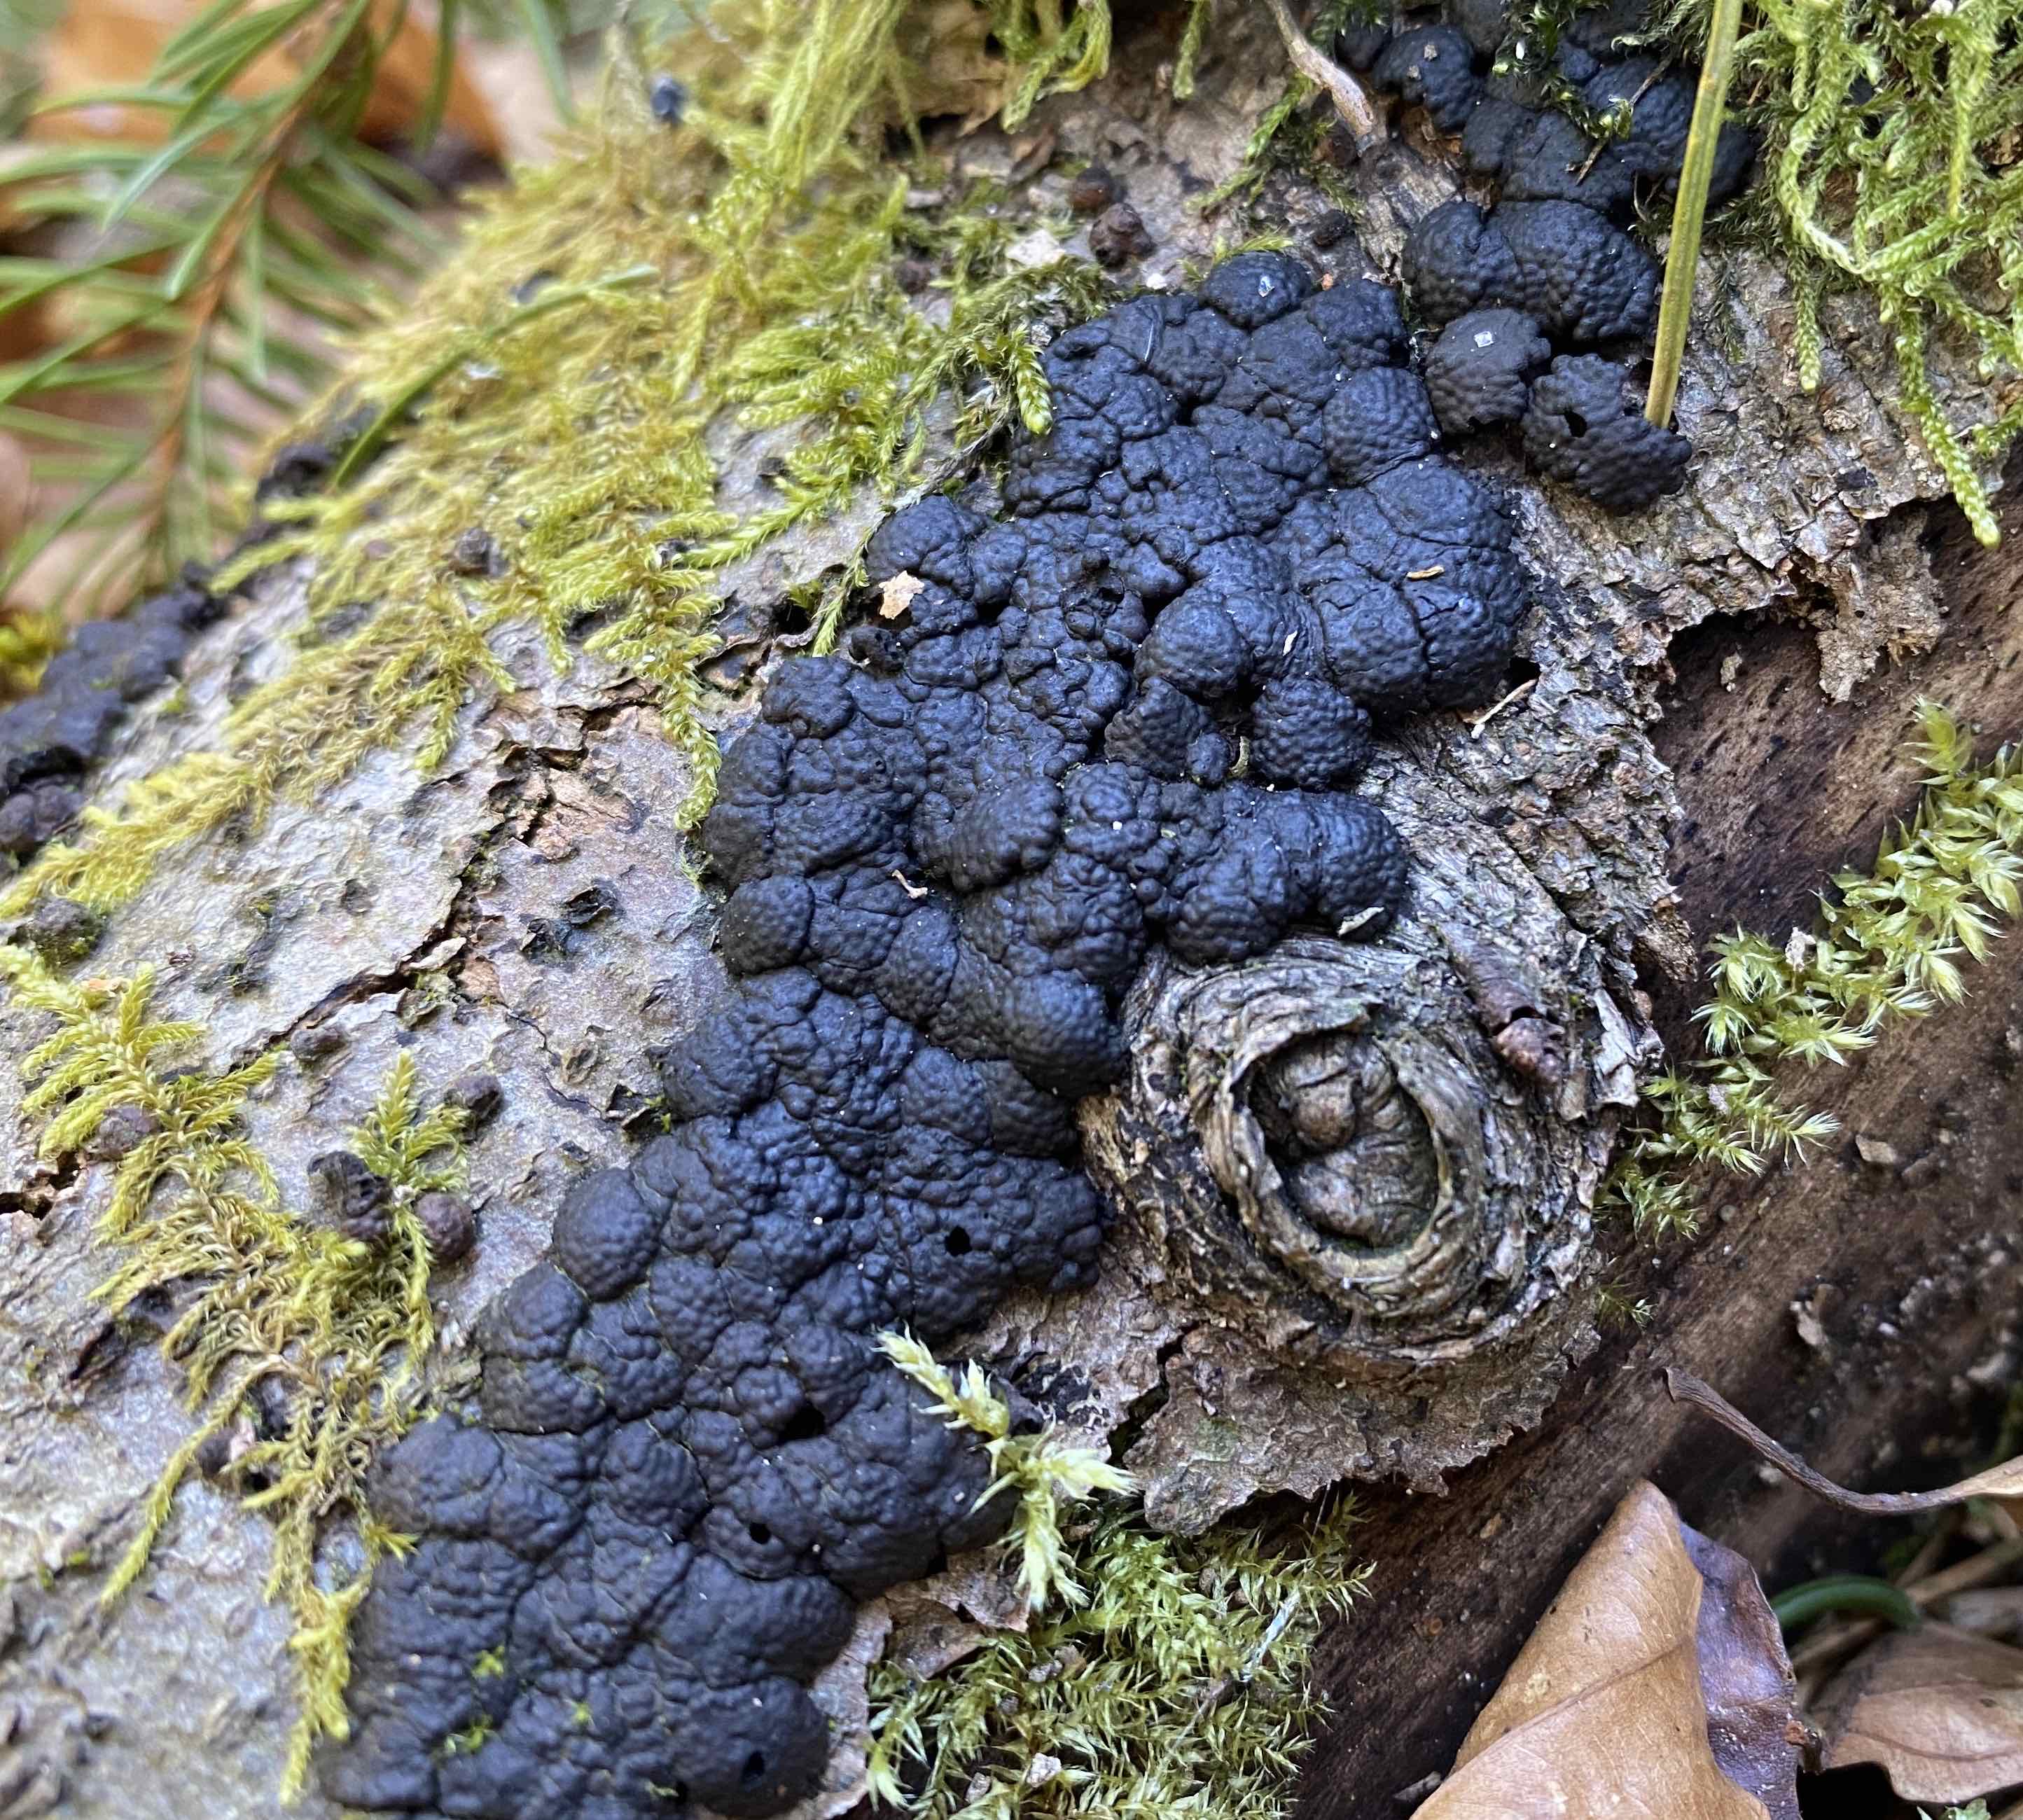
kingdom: Fungi
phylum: Ascomycota
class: Sordariomycetes
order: Xylariales
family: Hypoxylaceae
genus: Jackrogersella
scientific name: Jackrogersella cohaerens
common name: sammenflydende kulbær
